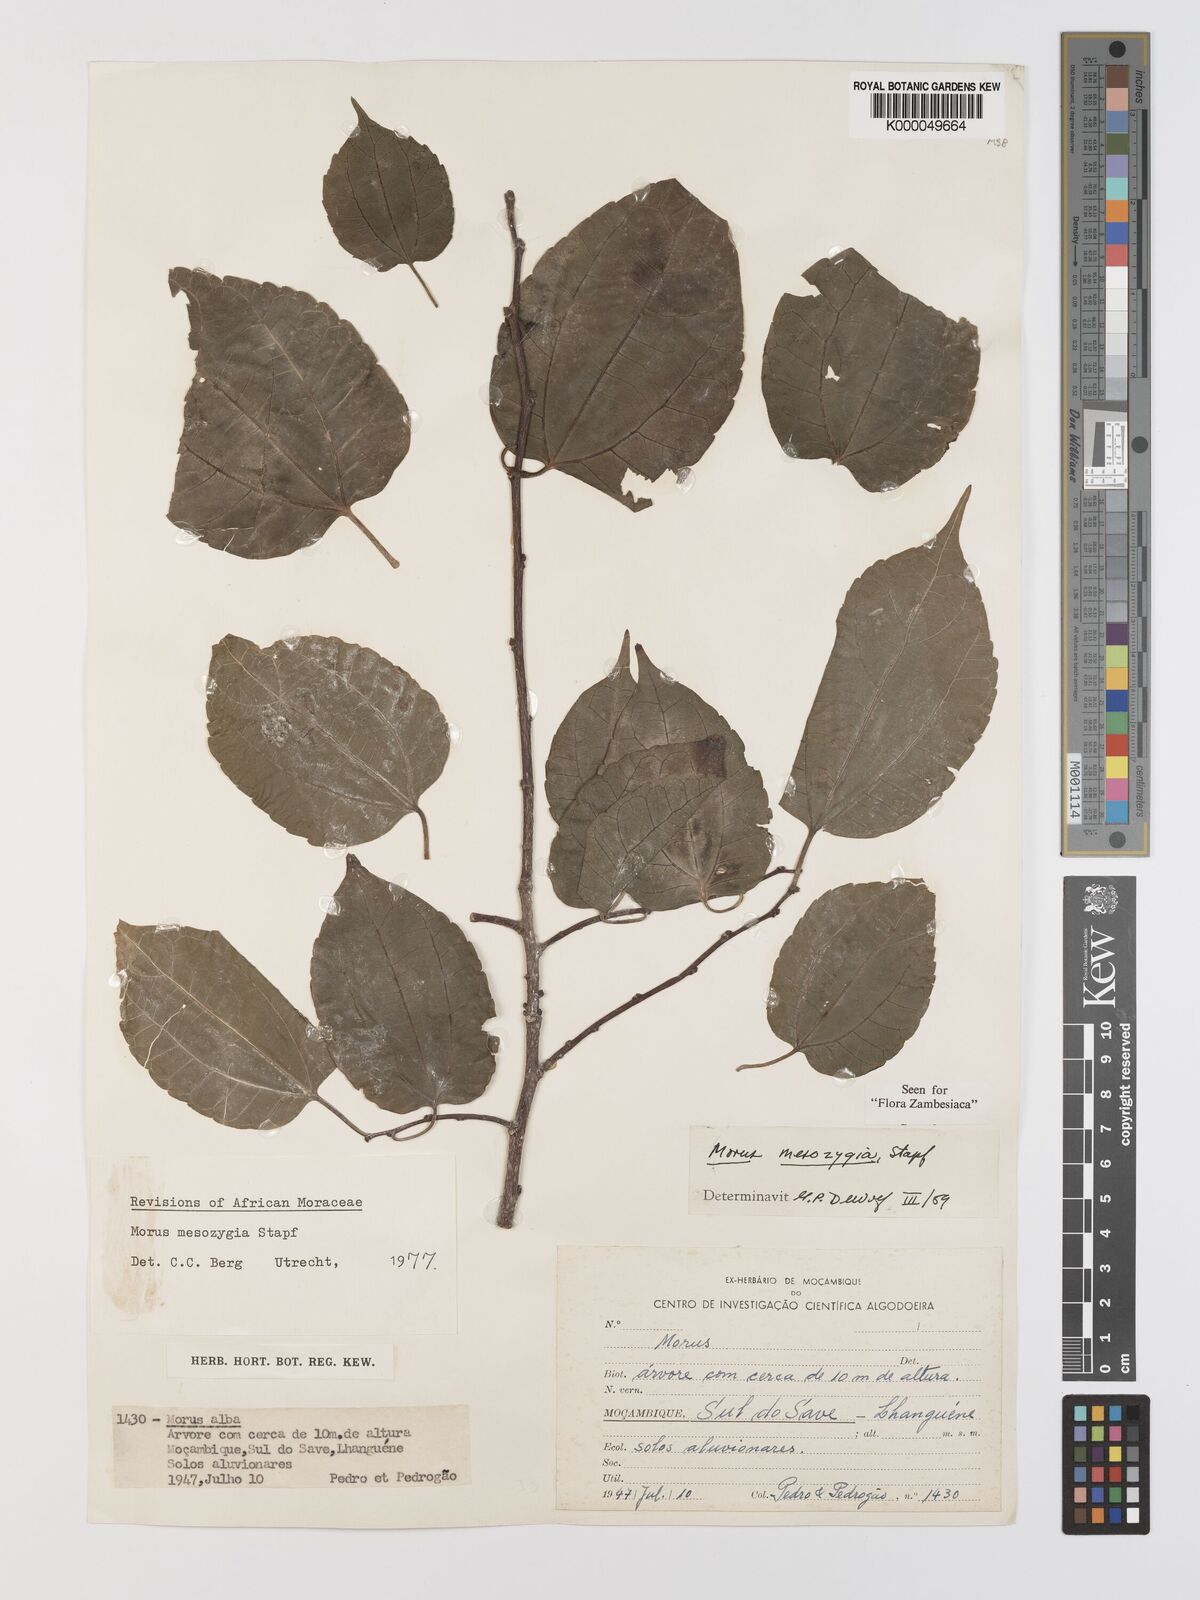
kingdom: Plantae
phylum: Tracheophyta
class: Magnoliopsida
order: Rosales
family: Moraceae
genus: Afromorus
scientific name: Afromorus mesozygia
